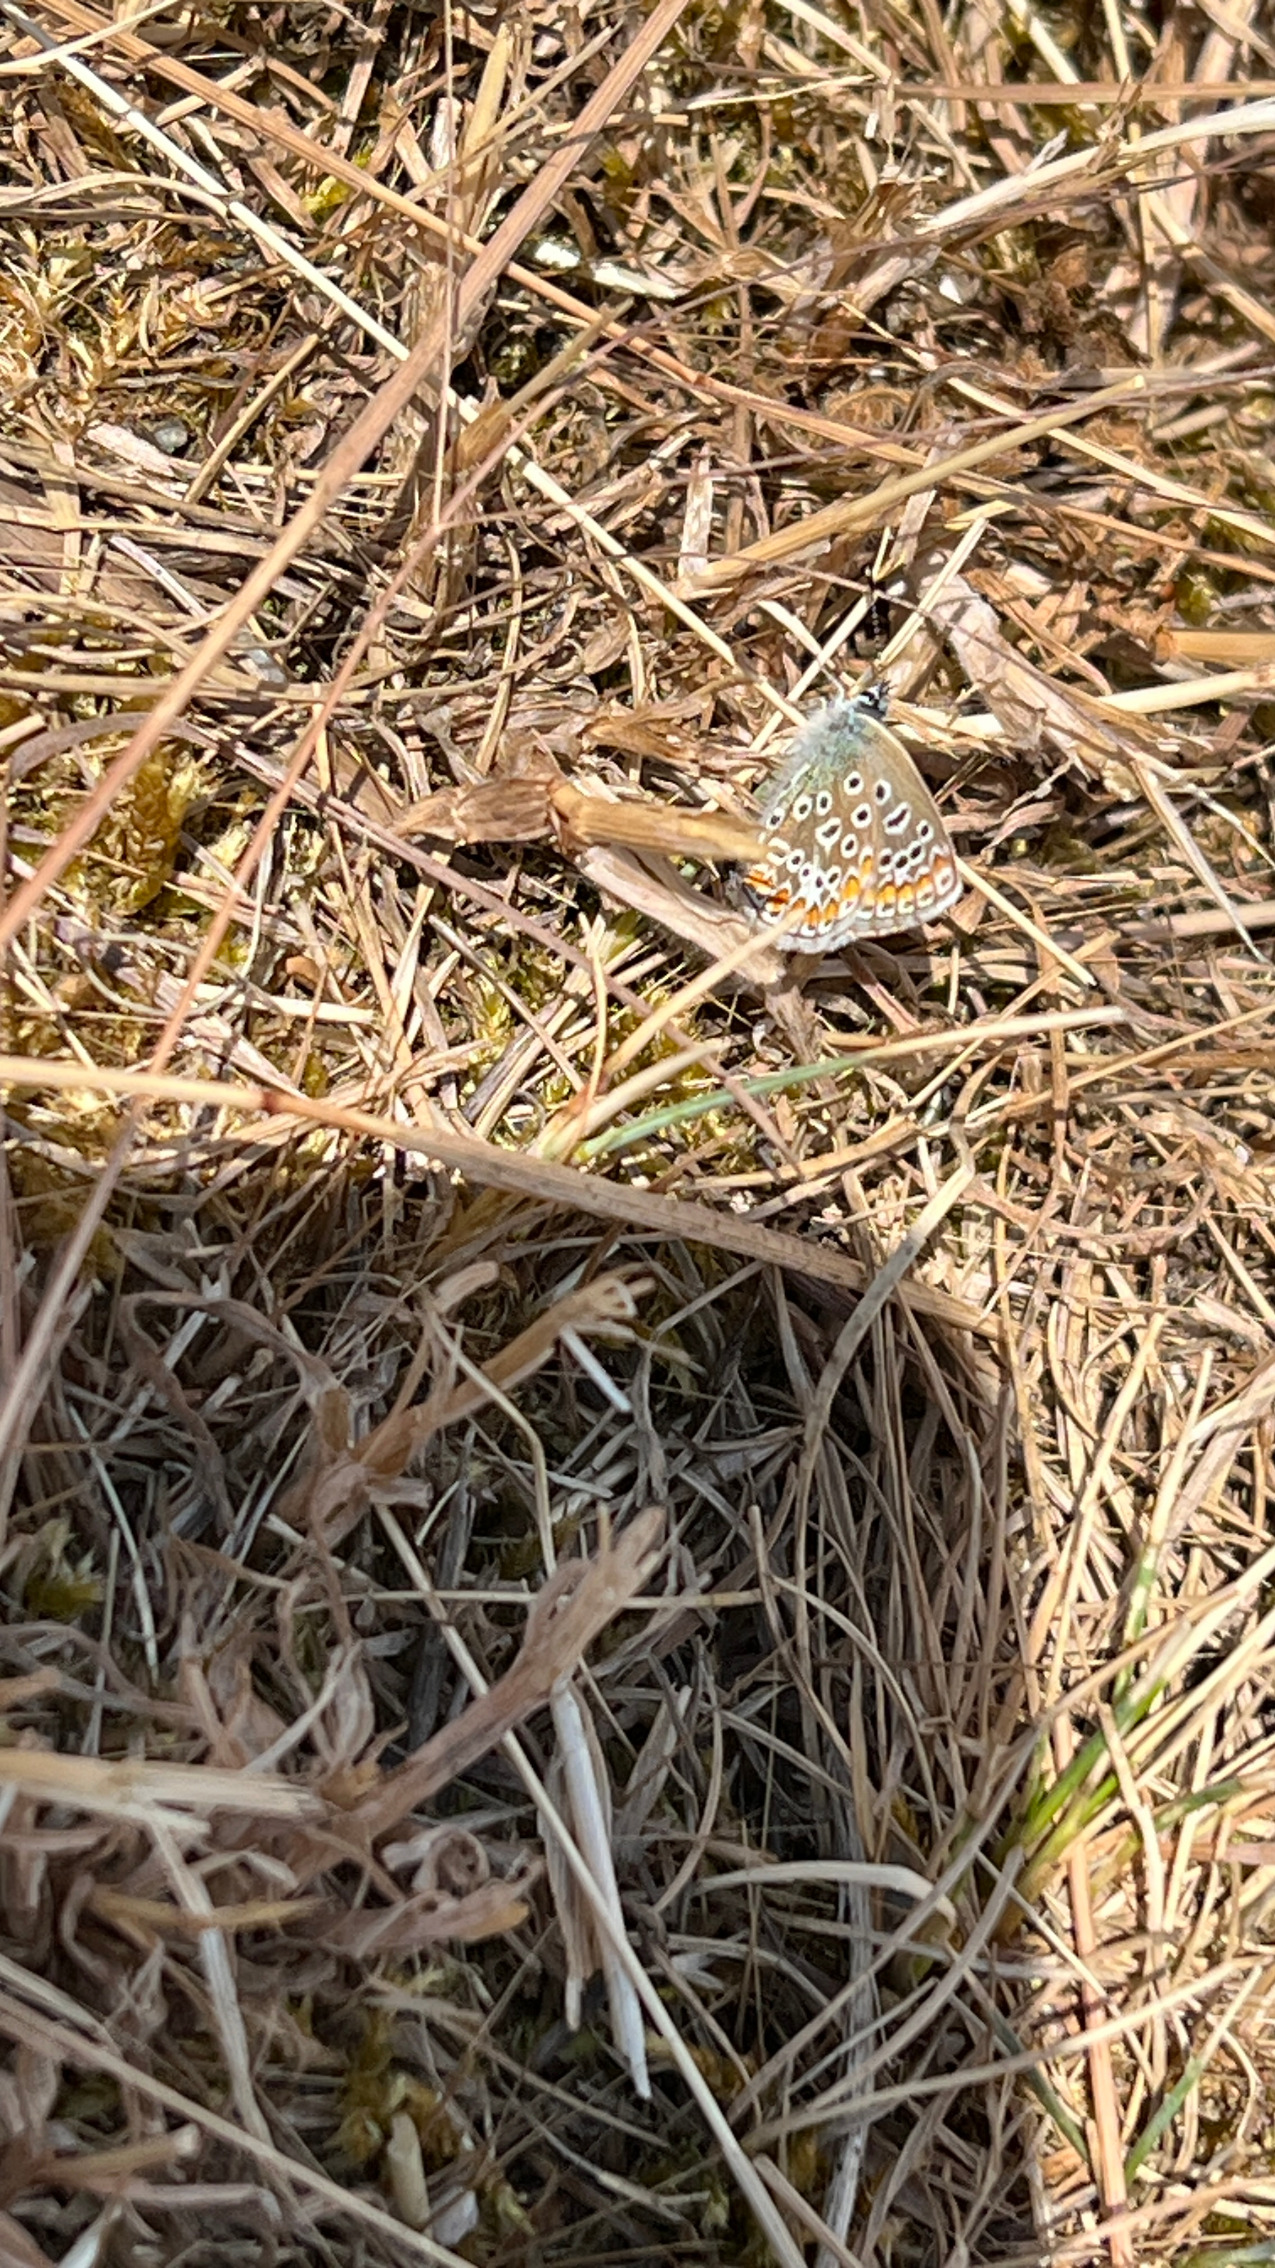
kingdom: Animalia
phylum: Arthropoda
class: Insecta
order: Lepidoptera
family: Lycaenidae
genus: Polyommatus
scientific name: Polyommatus icarus
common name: Almindelig blåfugl
